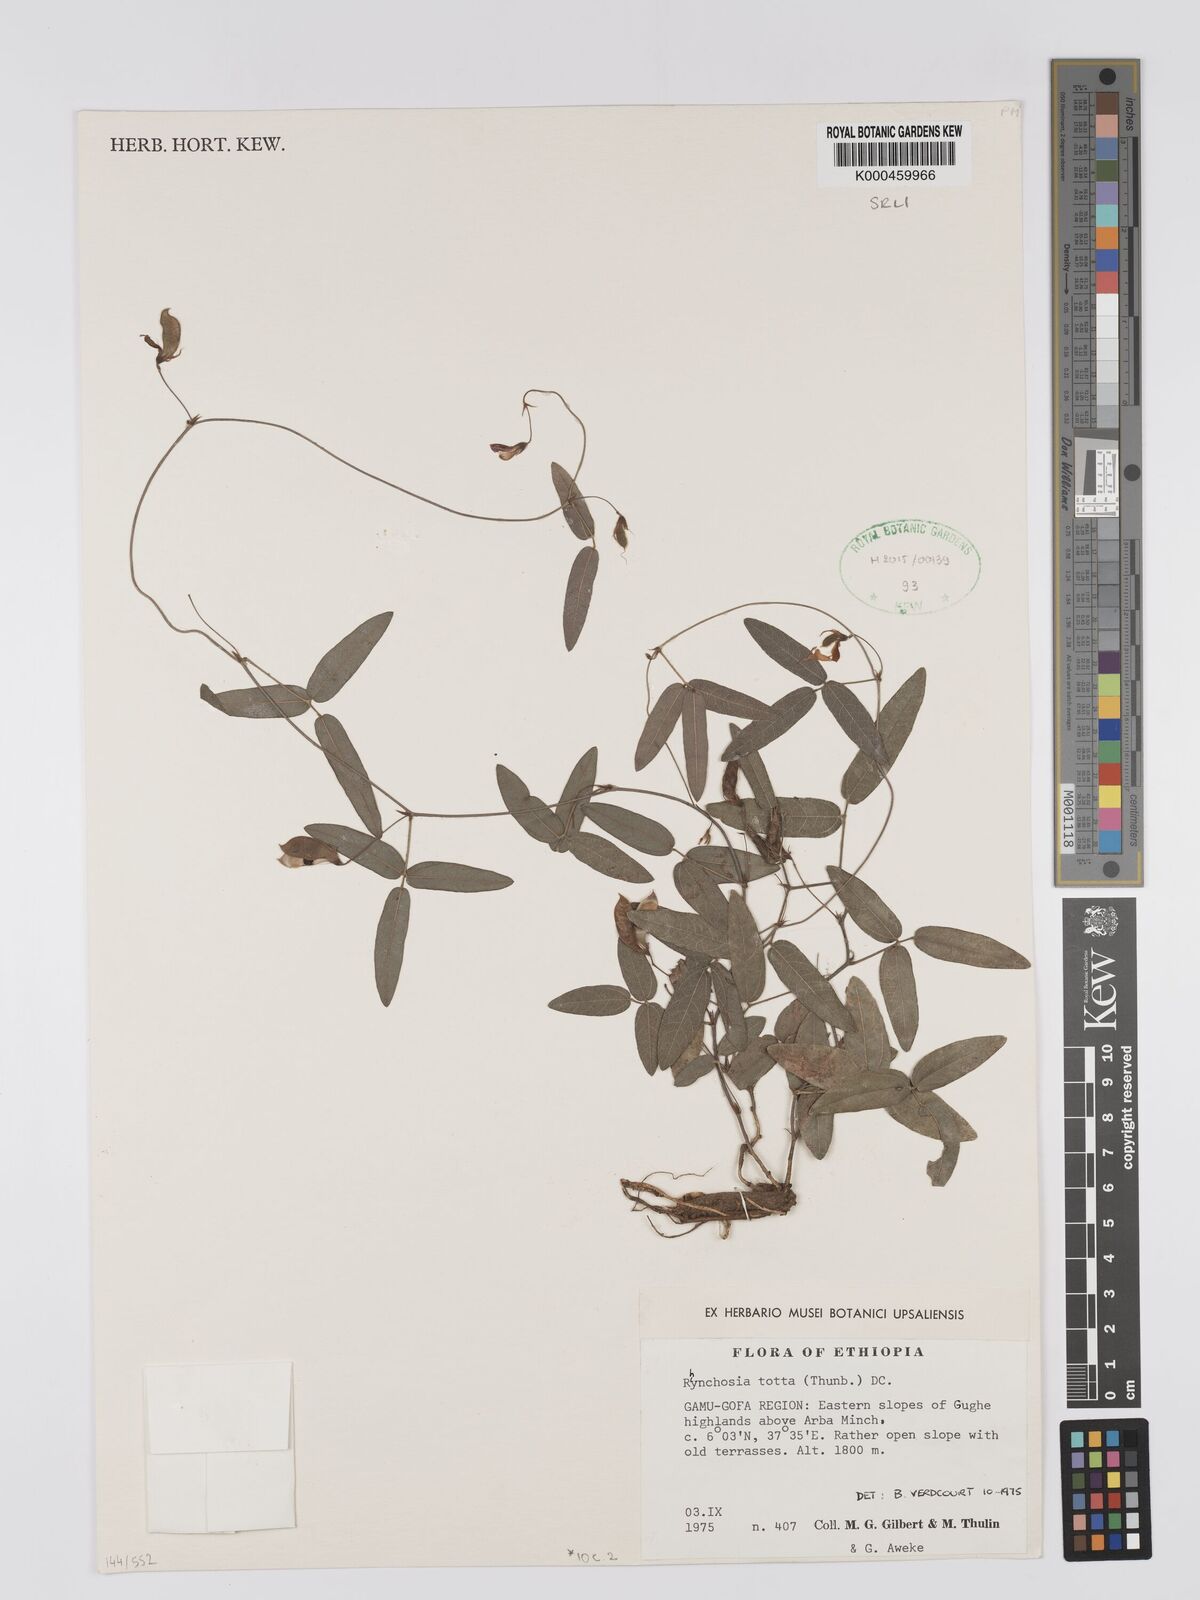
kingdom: Plantae
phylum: Tracheophyta
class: Magnoliopsida
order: Fabales
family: Fabaceae
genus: Rhynchosia
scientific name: Rhynchosia totta
